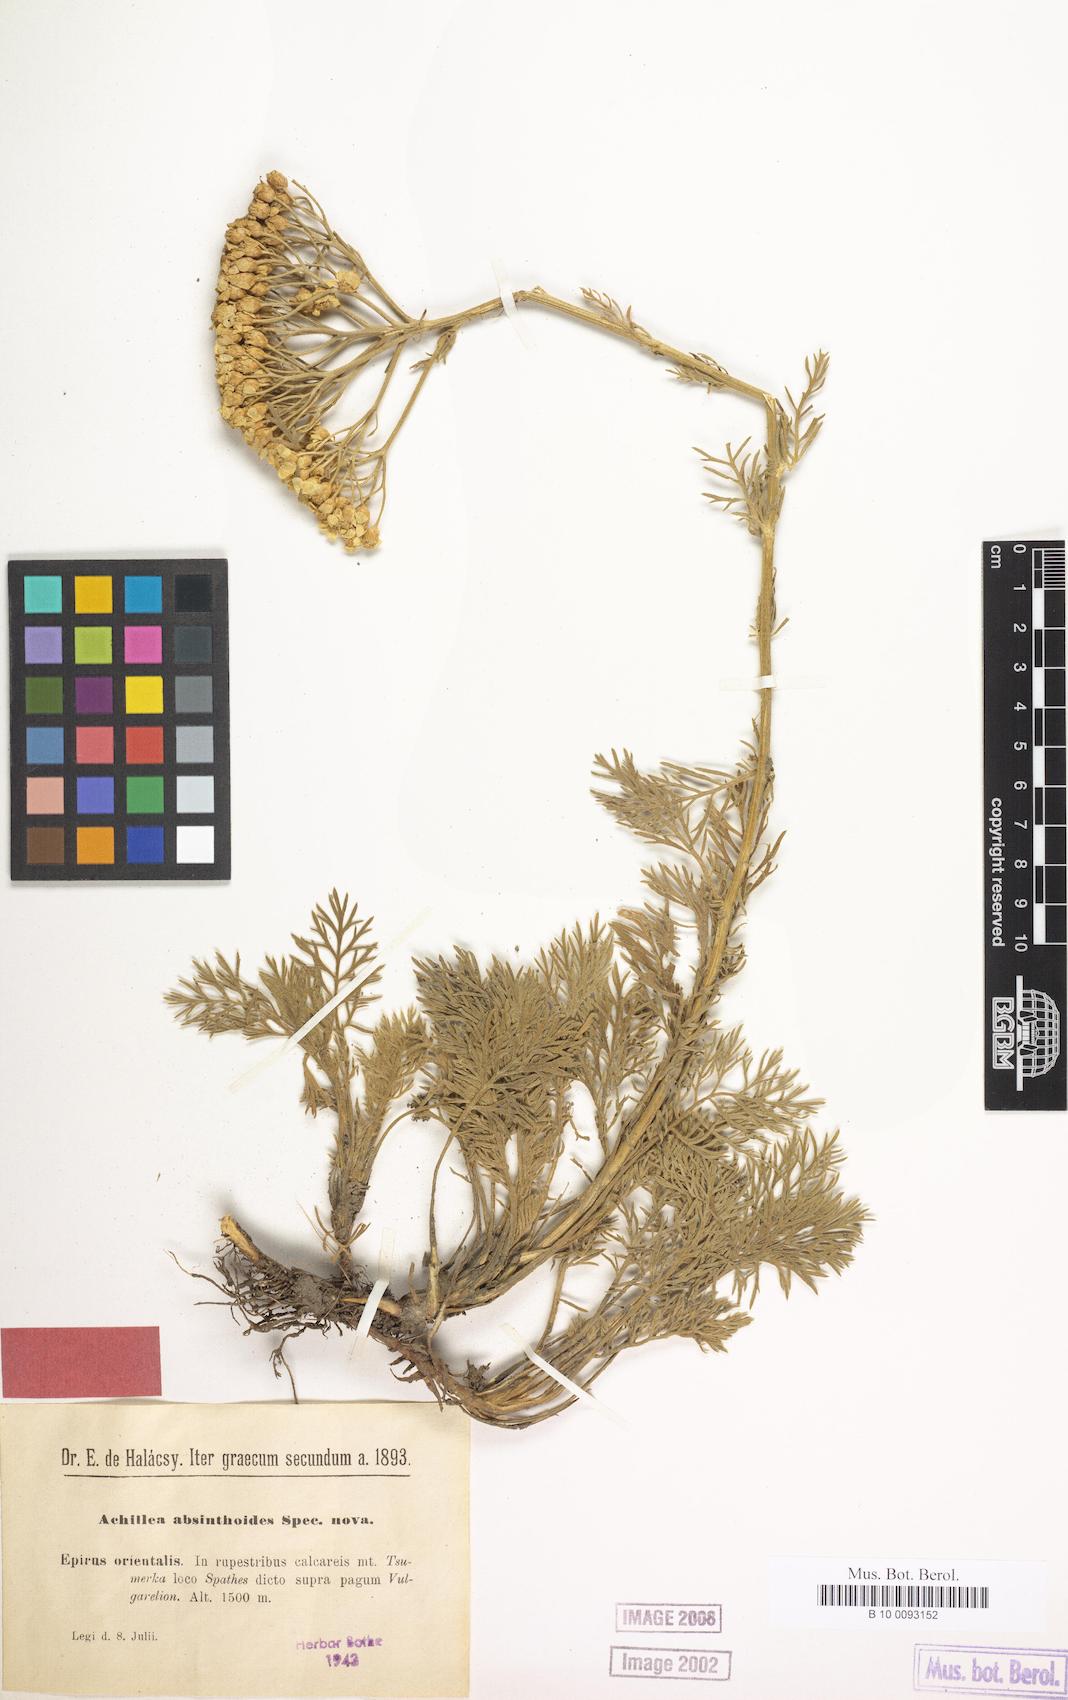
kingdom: Plantae
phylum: Tracheophyta
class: Magnoliopsida
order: Asterales
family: Asteraceae
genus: Achillea
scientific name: Achillea absinthoides
